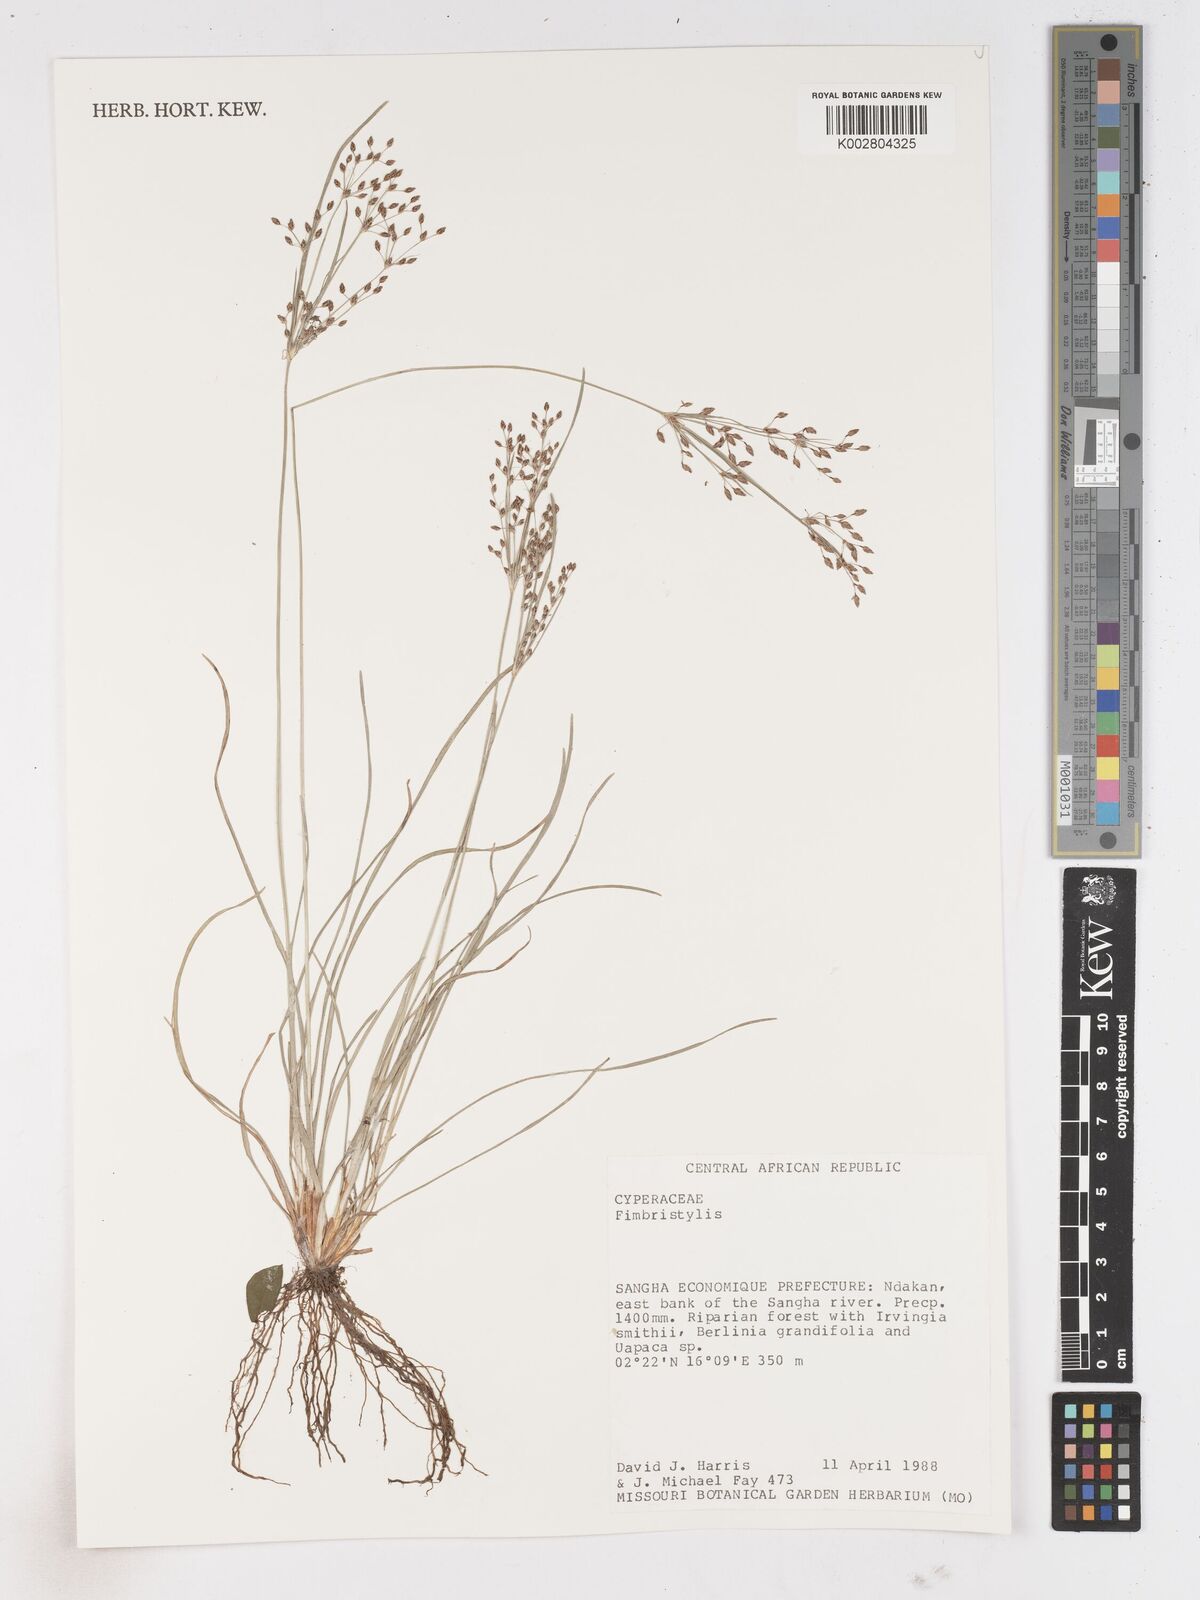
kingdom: Plantae
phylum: Tracheophyta
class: Liliopsida
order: Poales
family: Cyperaceae
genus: Fimbristylis
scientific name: Fimbristylis
